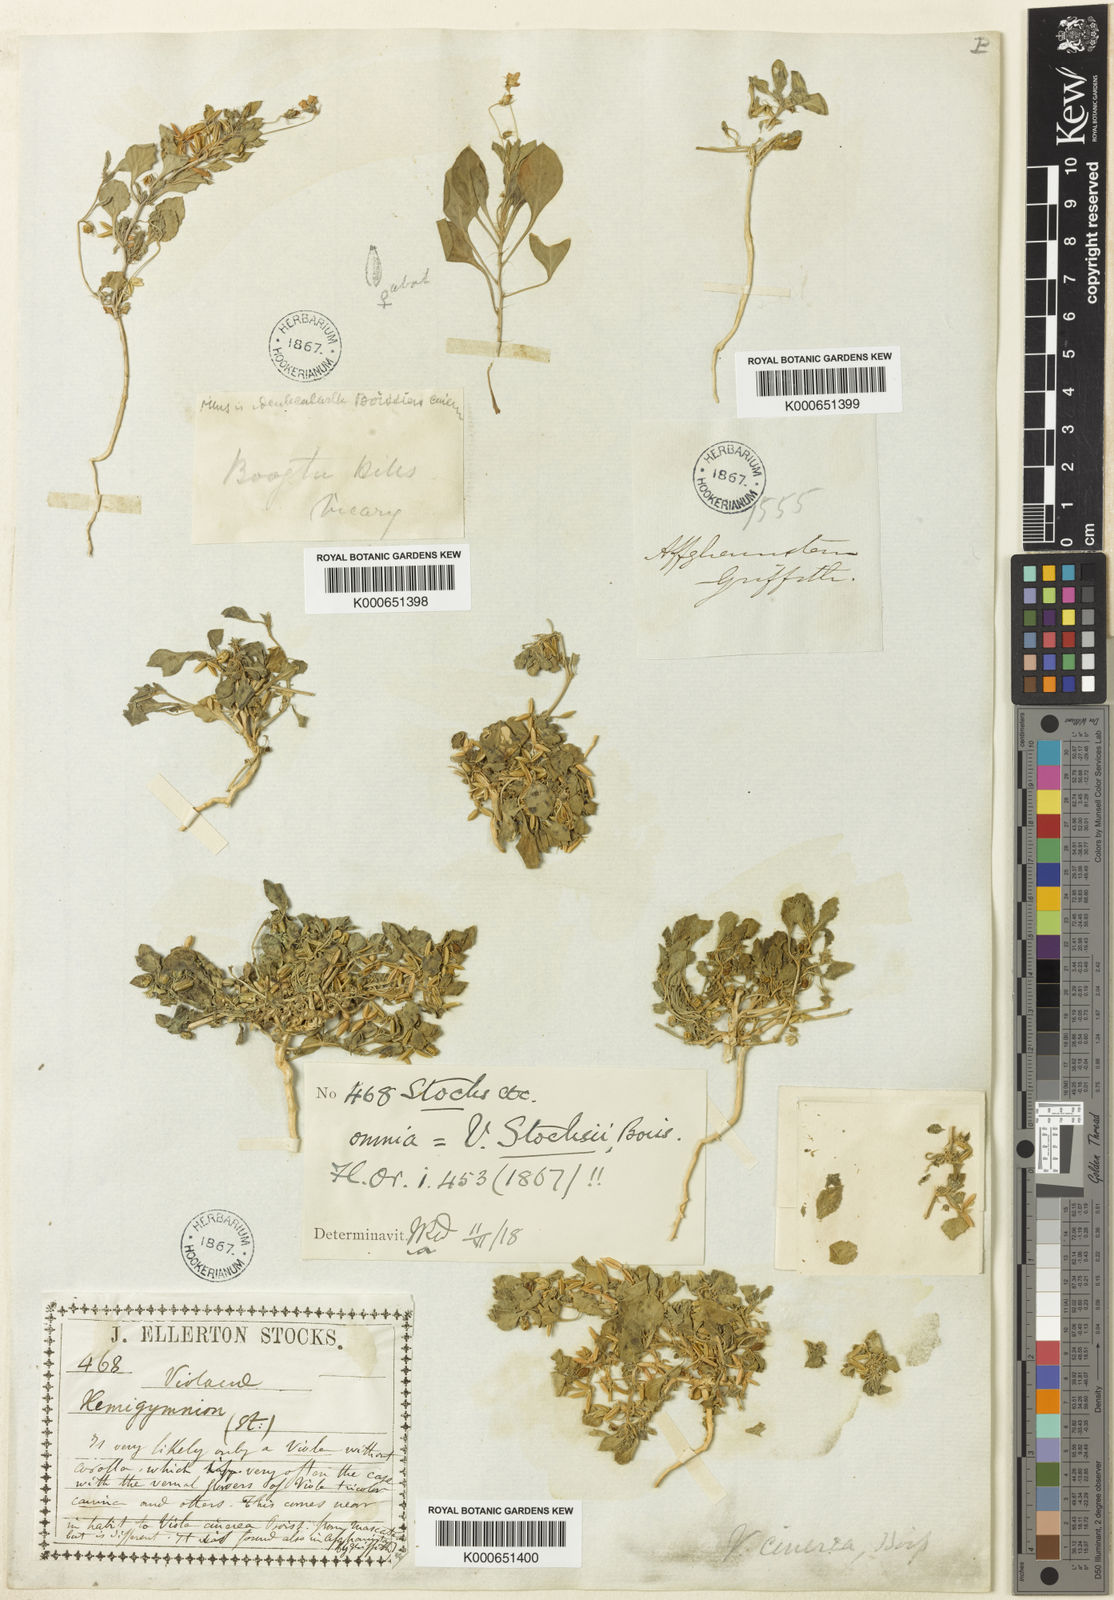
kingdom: Plantae
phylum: Tracheophyta
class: Magnoliopsida
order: Malpighiales
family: Violaceae
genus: Viola
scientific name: Viola cinerea
